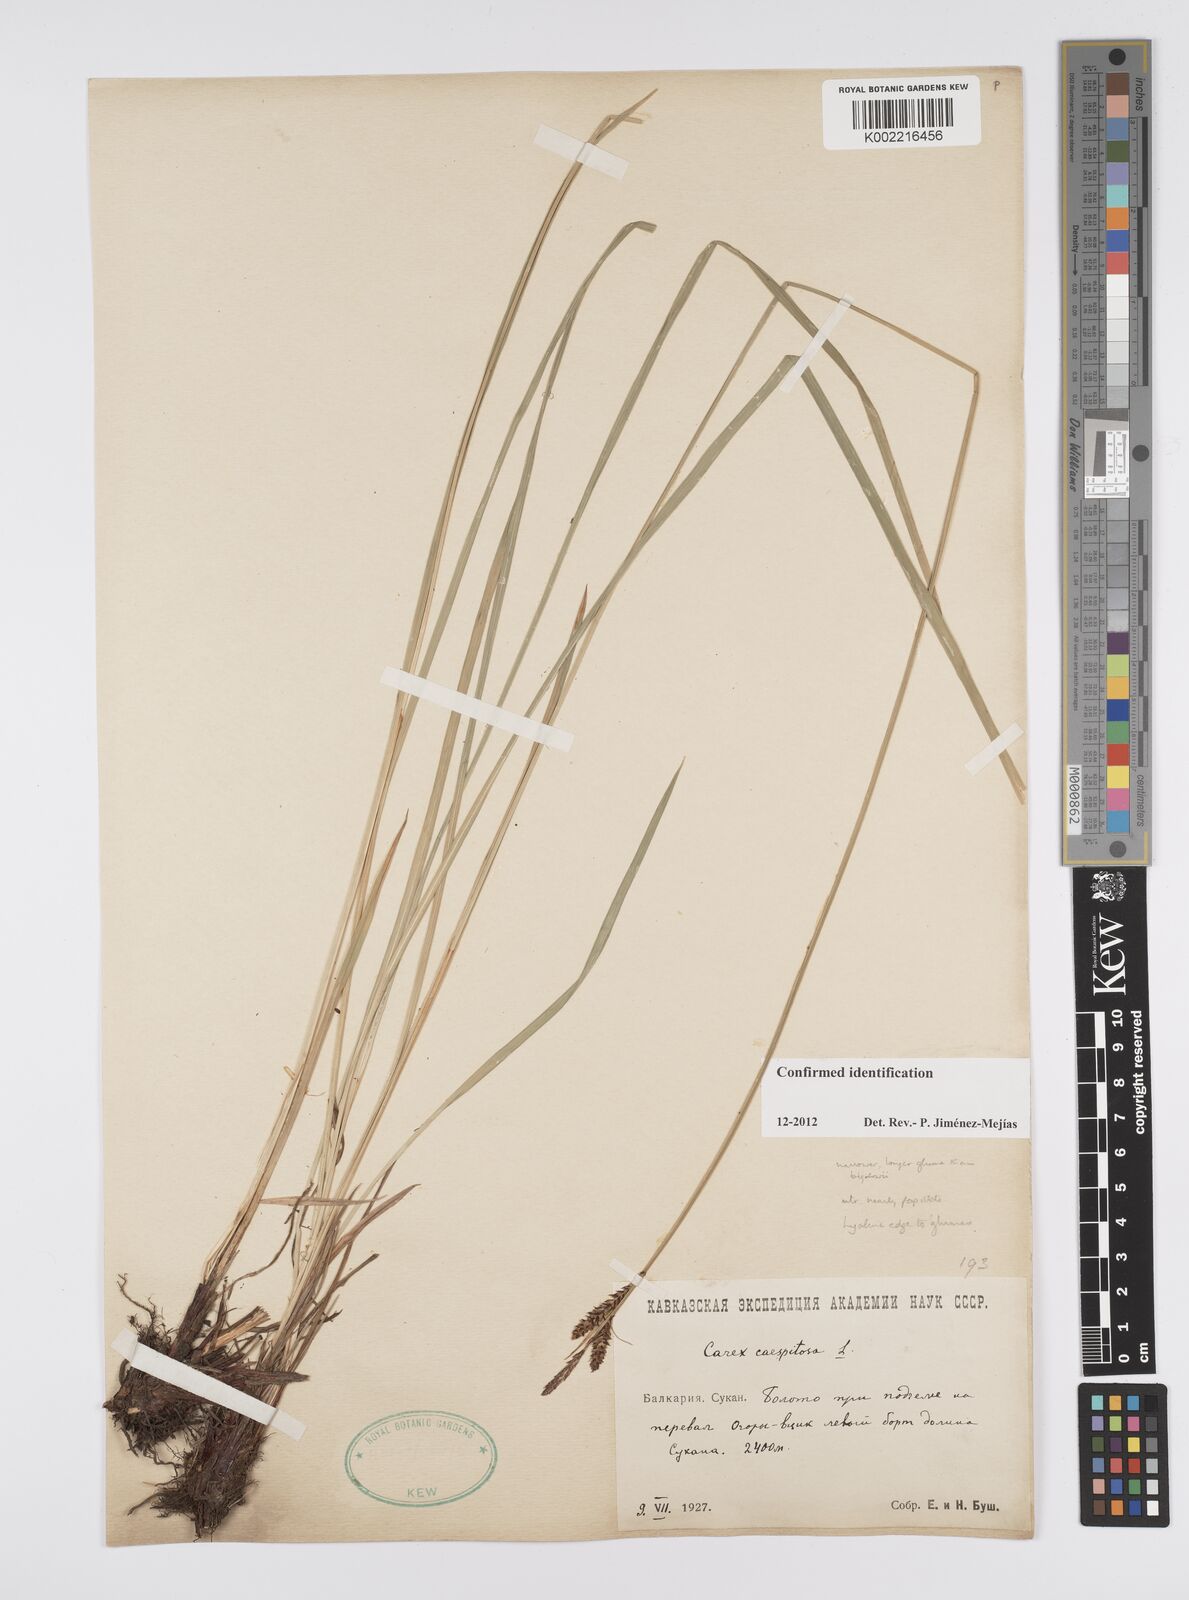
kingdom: Plantae
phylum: Tracheophyta
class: Liliopsida
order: Poales
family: Cyperaceae
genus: Carex
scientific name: Carex
